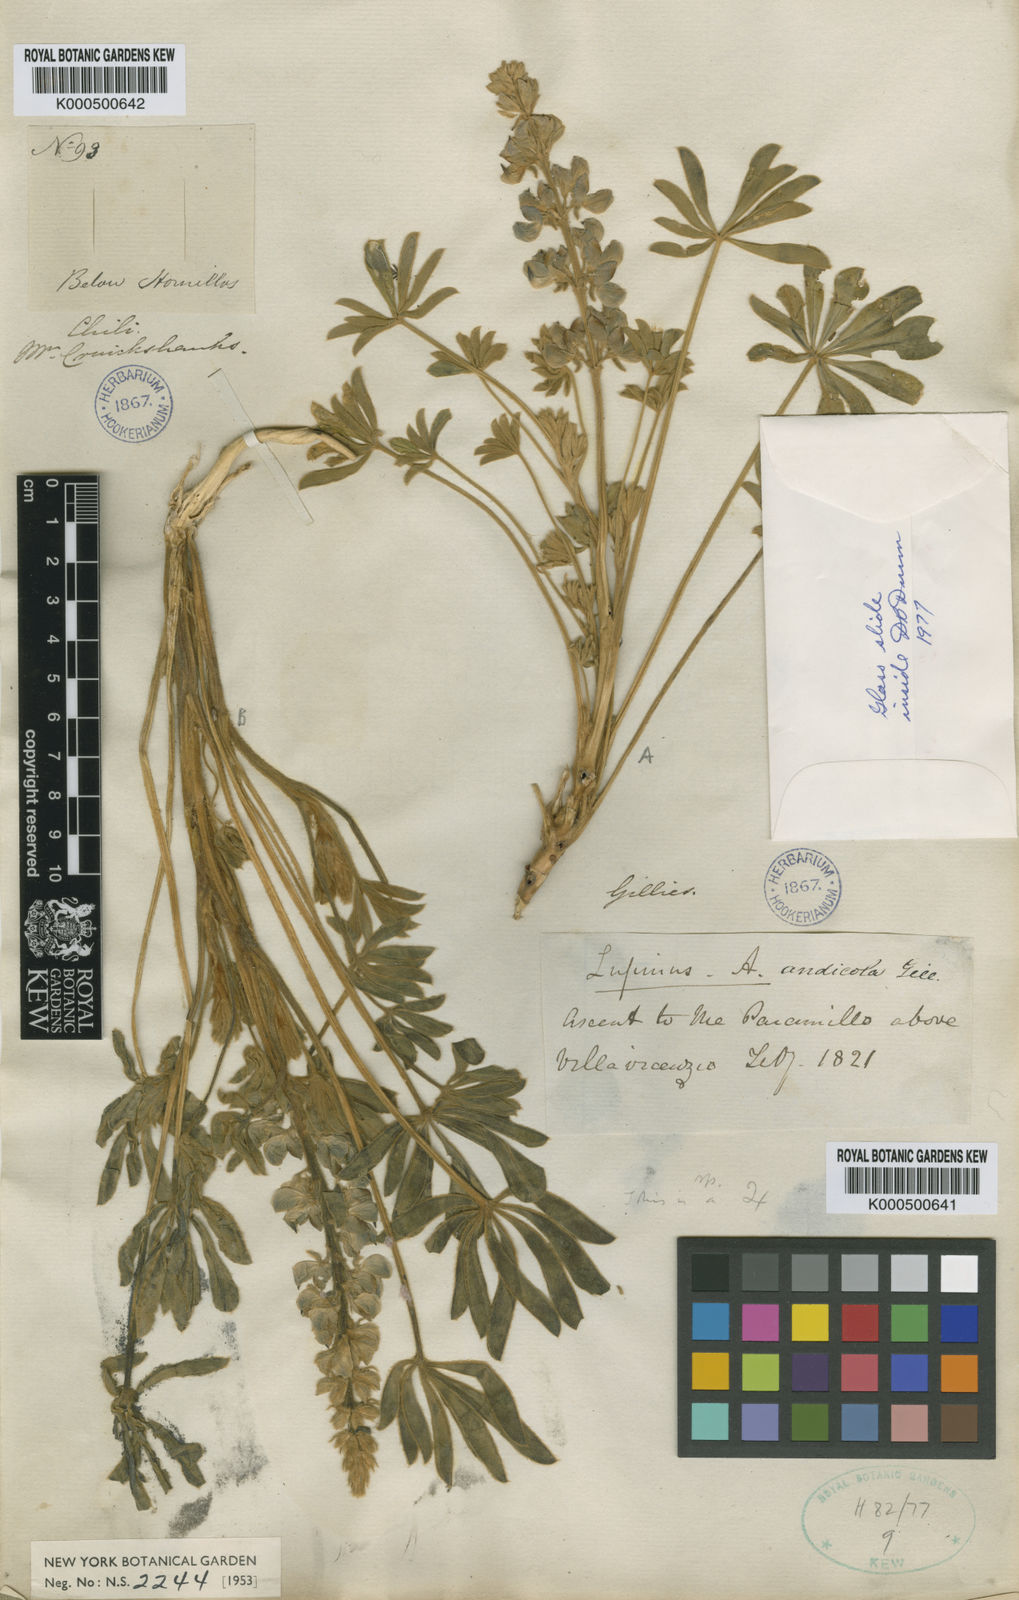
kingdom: Plantae
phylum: Tracheophyta
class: Magnoliopsida
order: Fabales
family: Fabaceae
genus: Lupinus
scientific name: Lupinus
